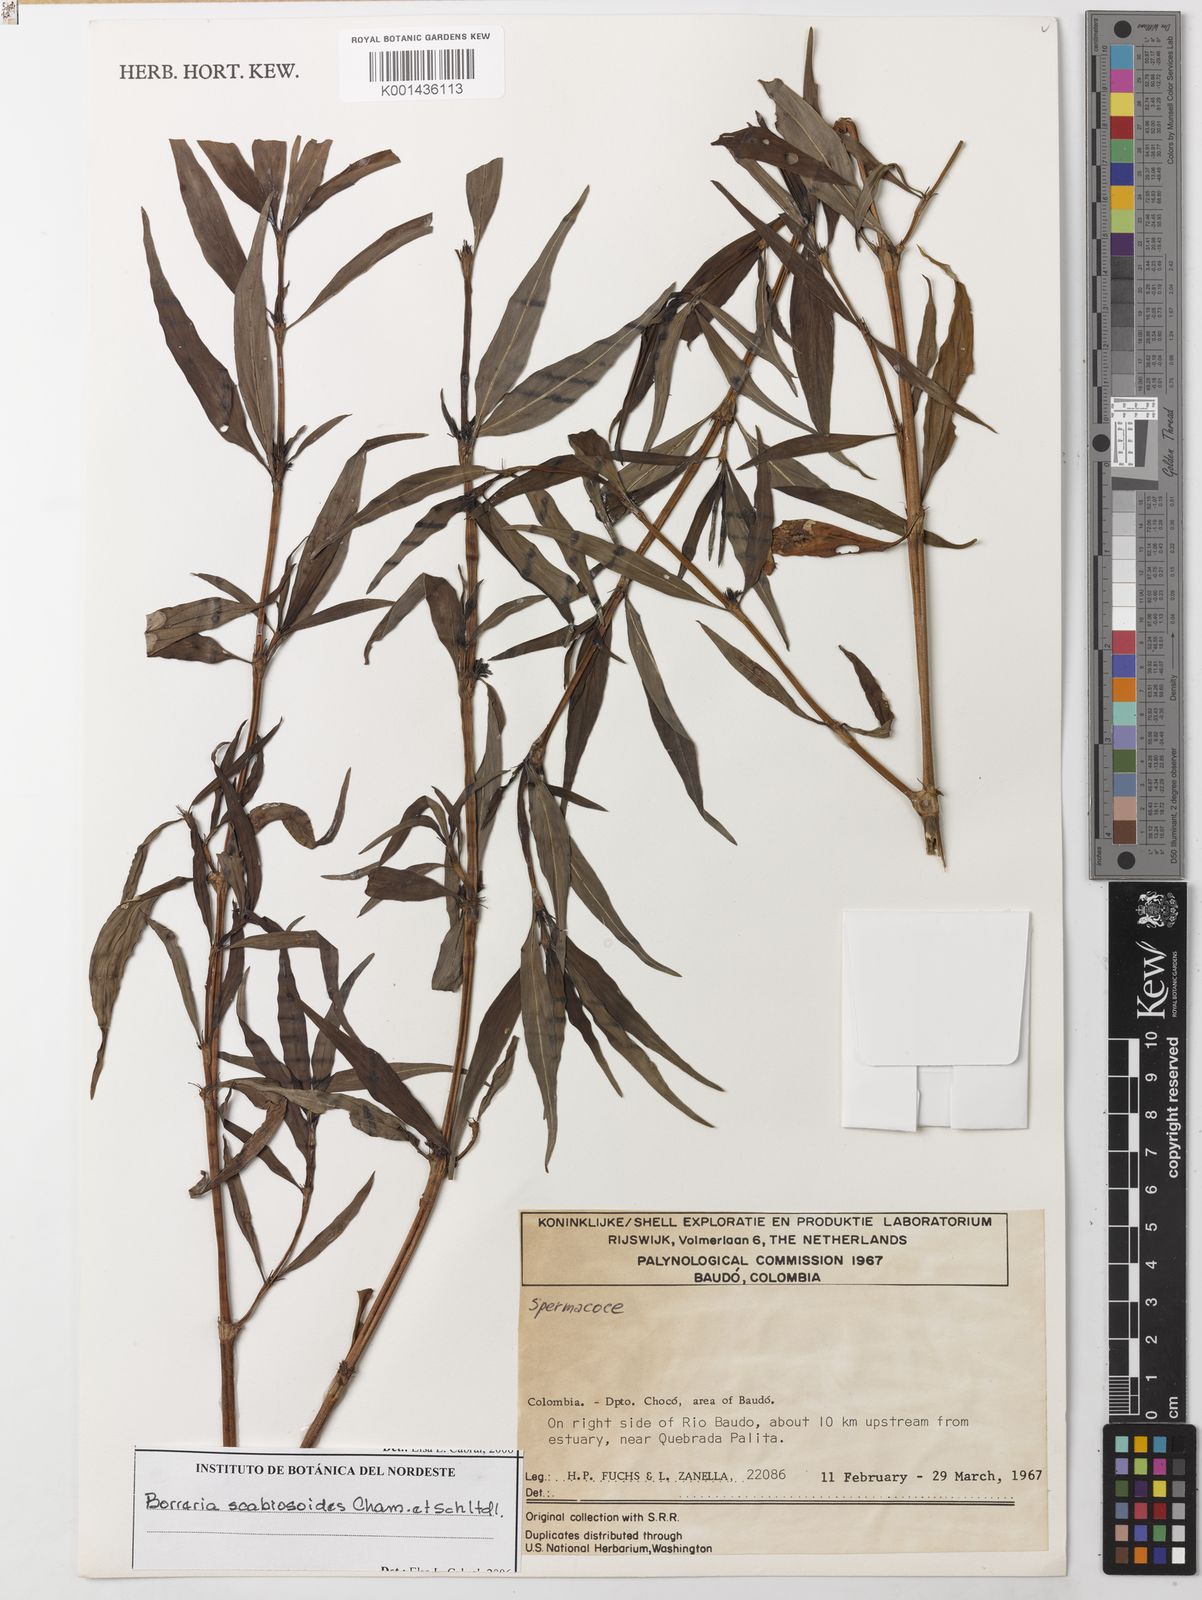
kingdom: Plantae
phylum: Tracheophyta
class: Magnoliopsida
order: Gentianales
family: Rubiaceae
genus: Spermacoce
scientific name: Spermacoce scabiosoides
